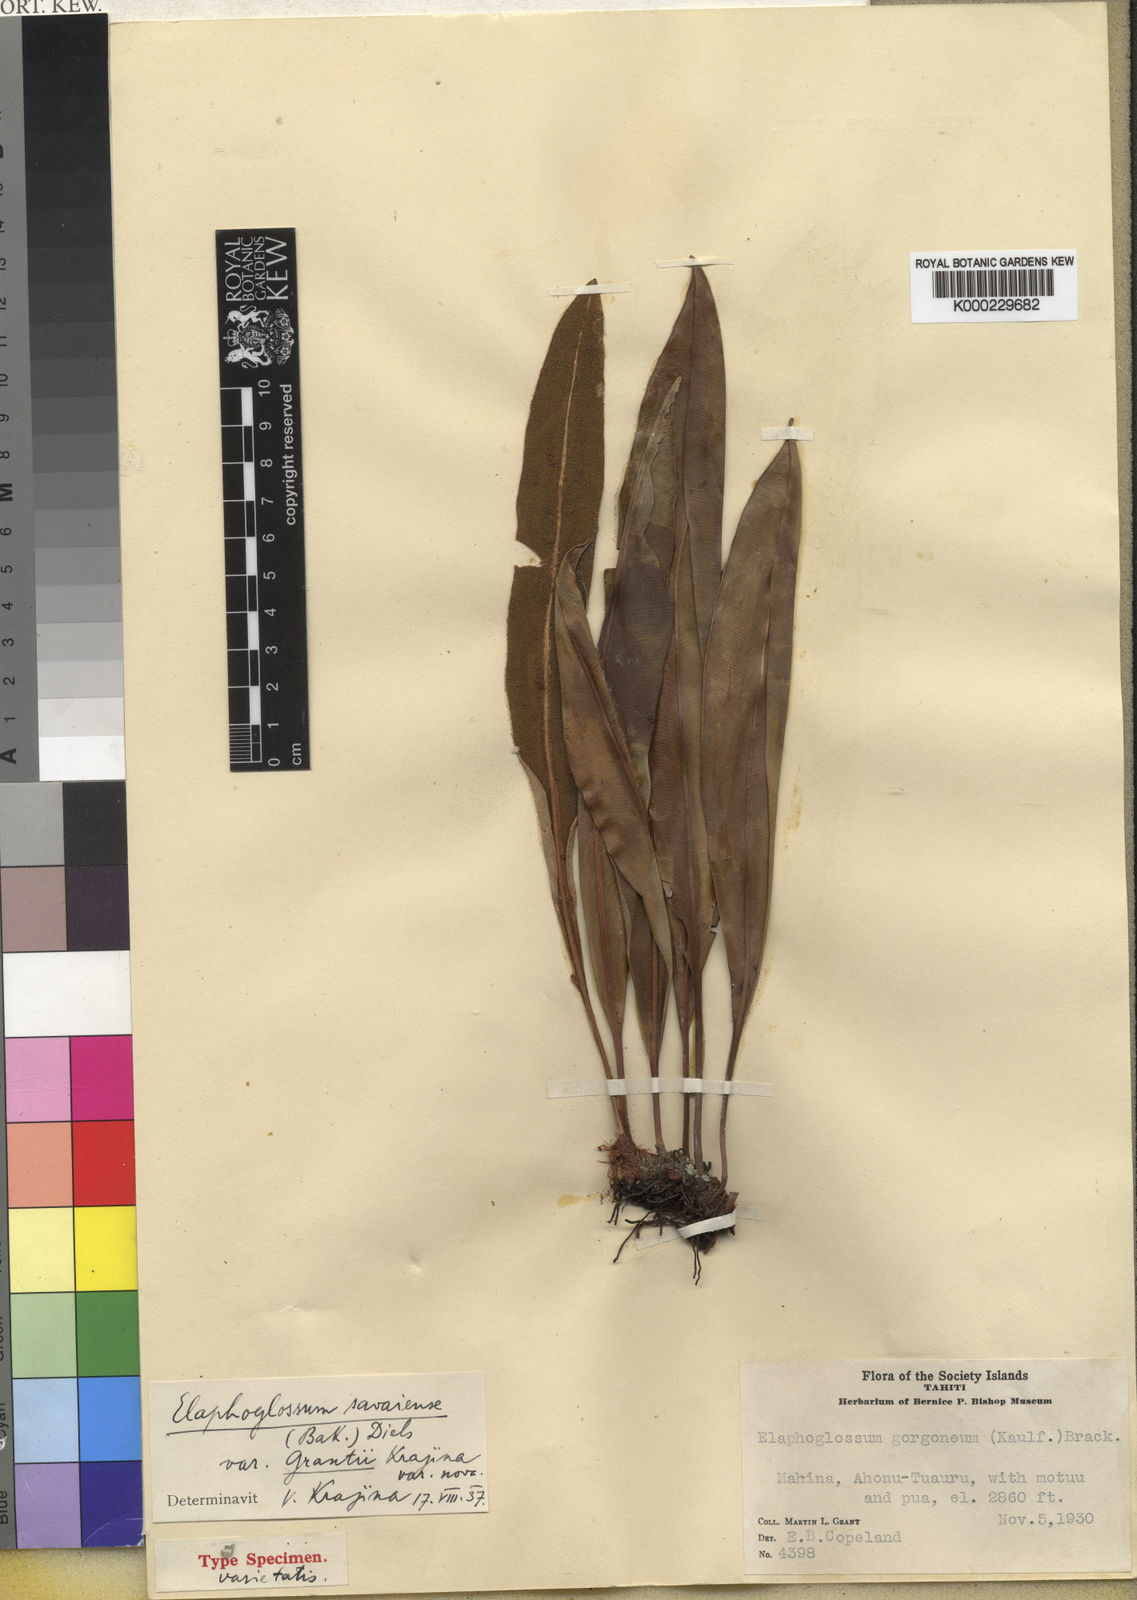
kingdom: Plantae
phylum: Tracheophyta
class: Polypodiopsida
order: Polypodiales
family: Dryopteridaceae
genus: Elaphoglossum
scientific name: Elaphoglossum savaiense
